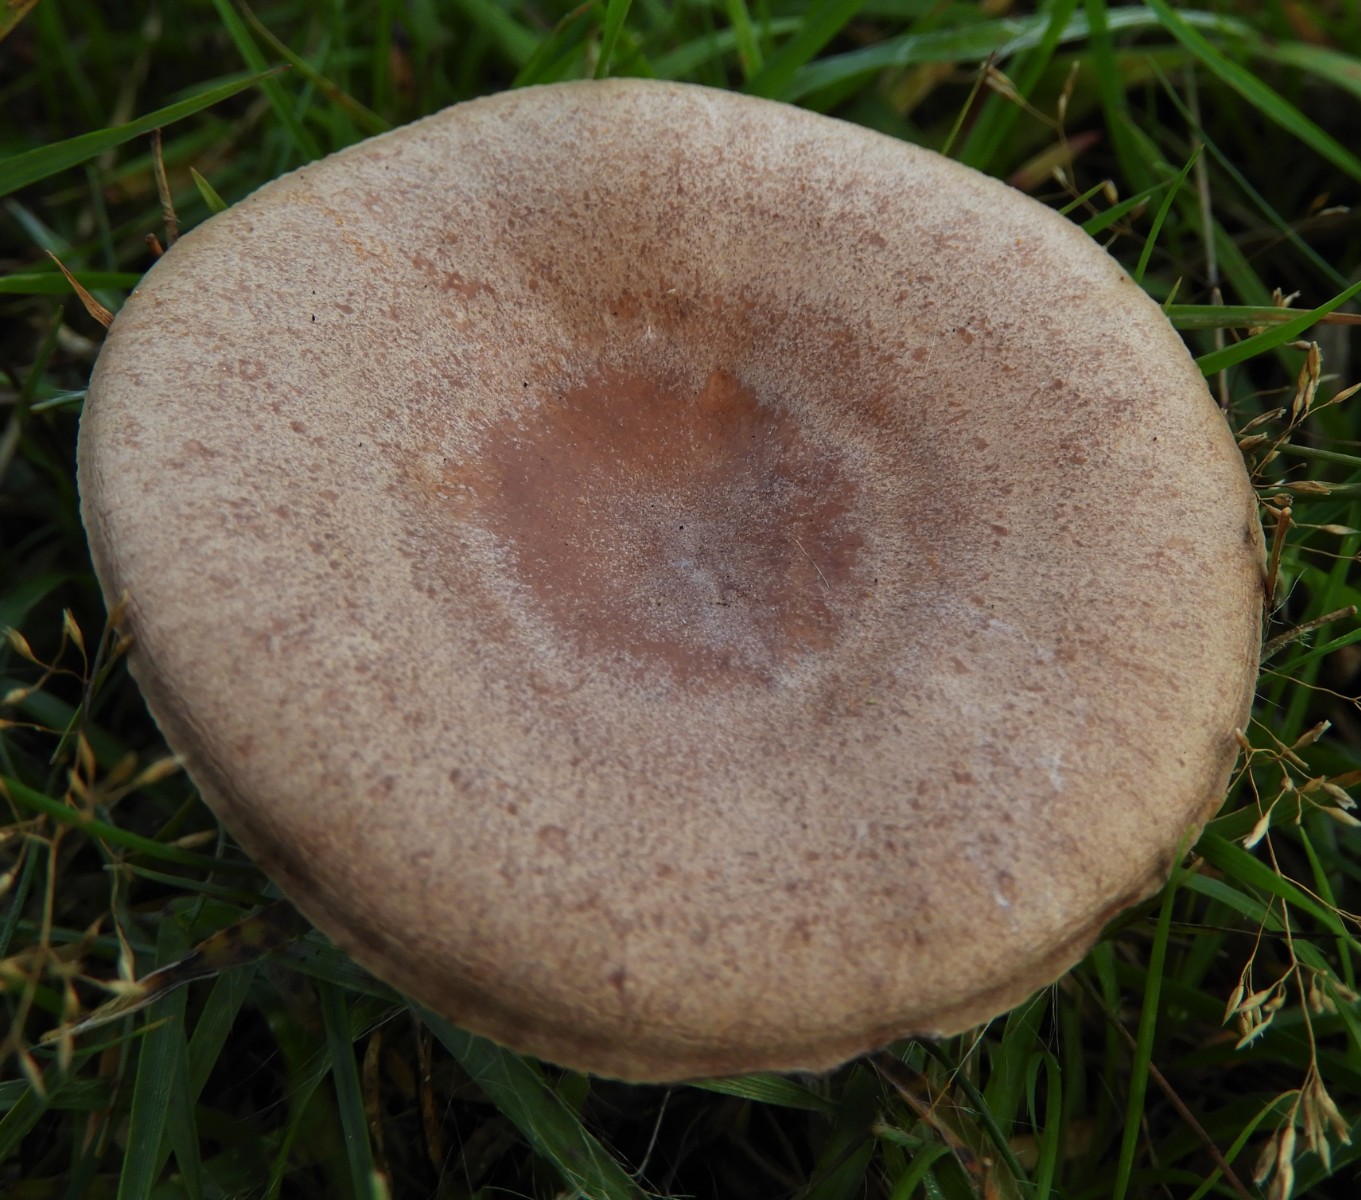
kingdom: Fungi
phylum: Basidiomycota
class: Agaricomycetes
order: Russulales
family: Russulaceae
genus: Lactarius
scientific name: Lactarius quietus
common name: ege-mælkehat
